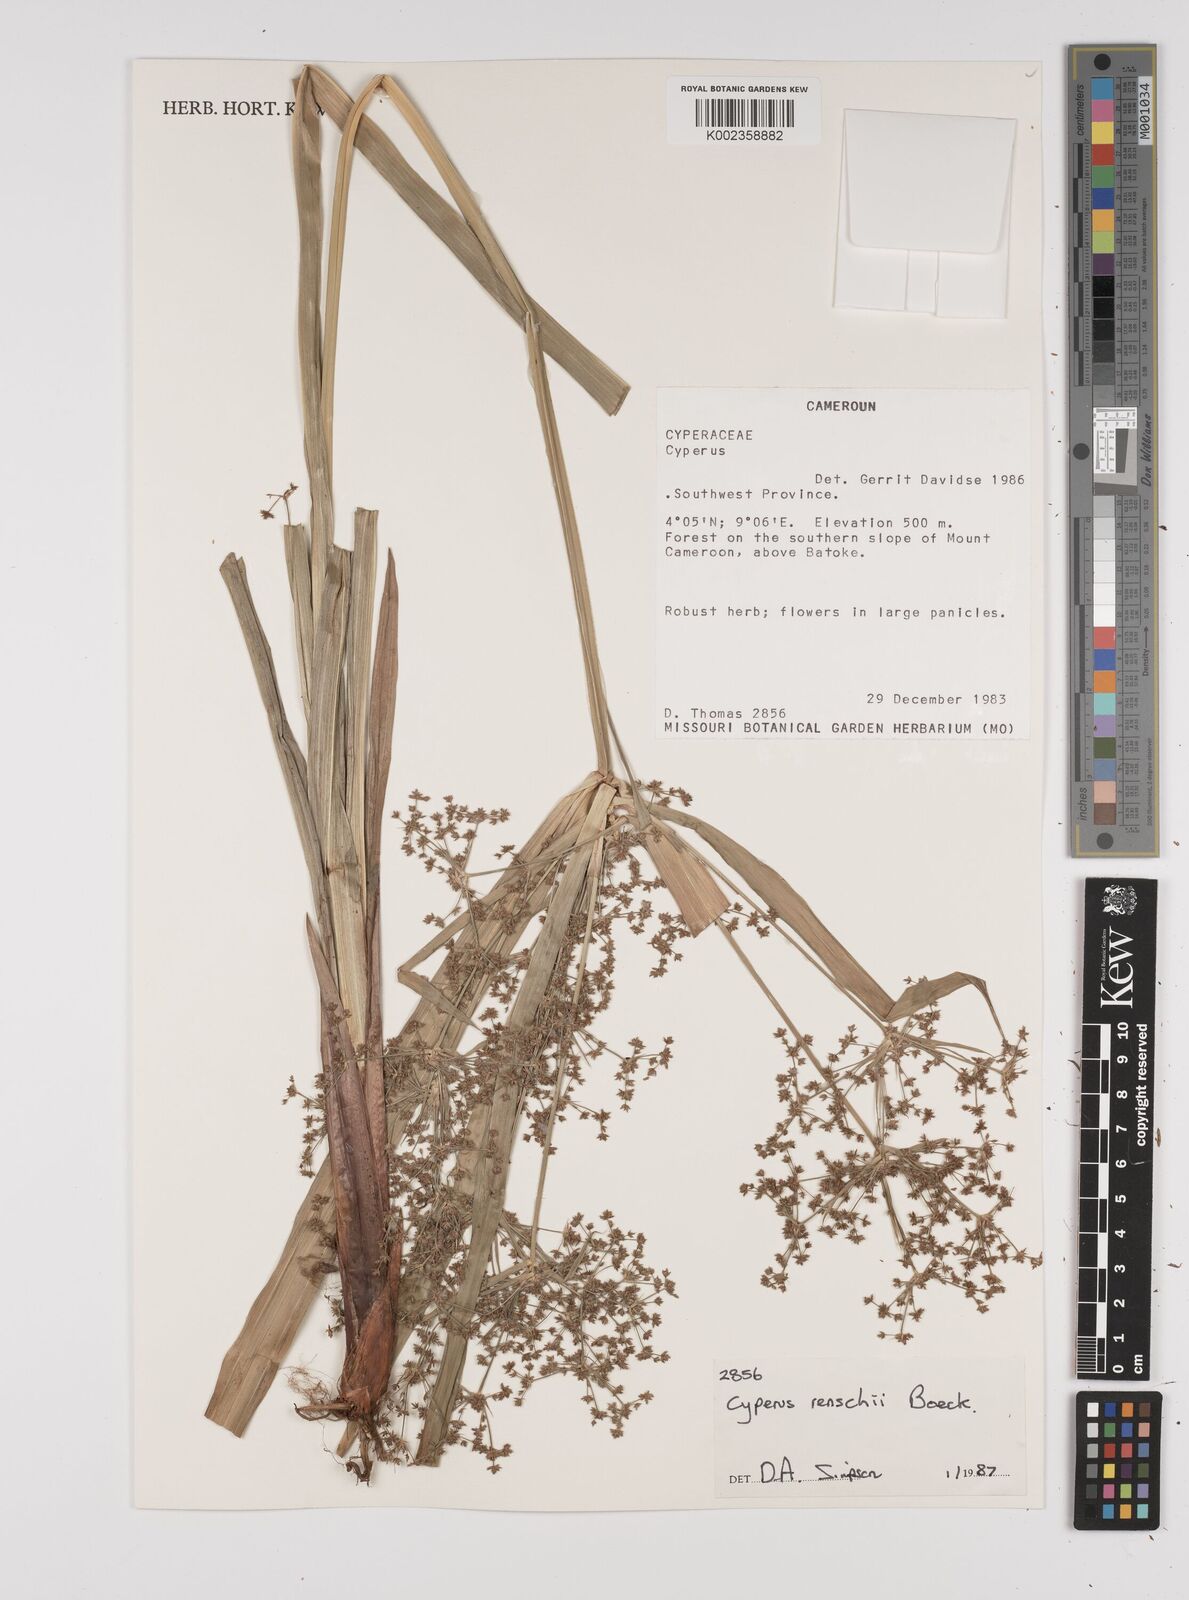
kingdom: Plantae
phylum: Tracheophyta
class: Liliopsida
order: Poales
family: Cyperaceae
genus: Cyperus
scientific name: Cyperus renschii
